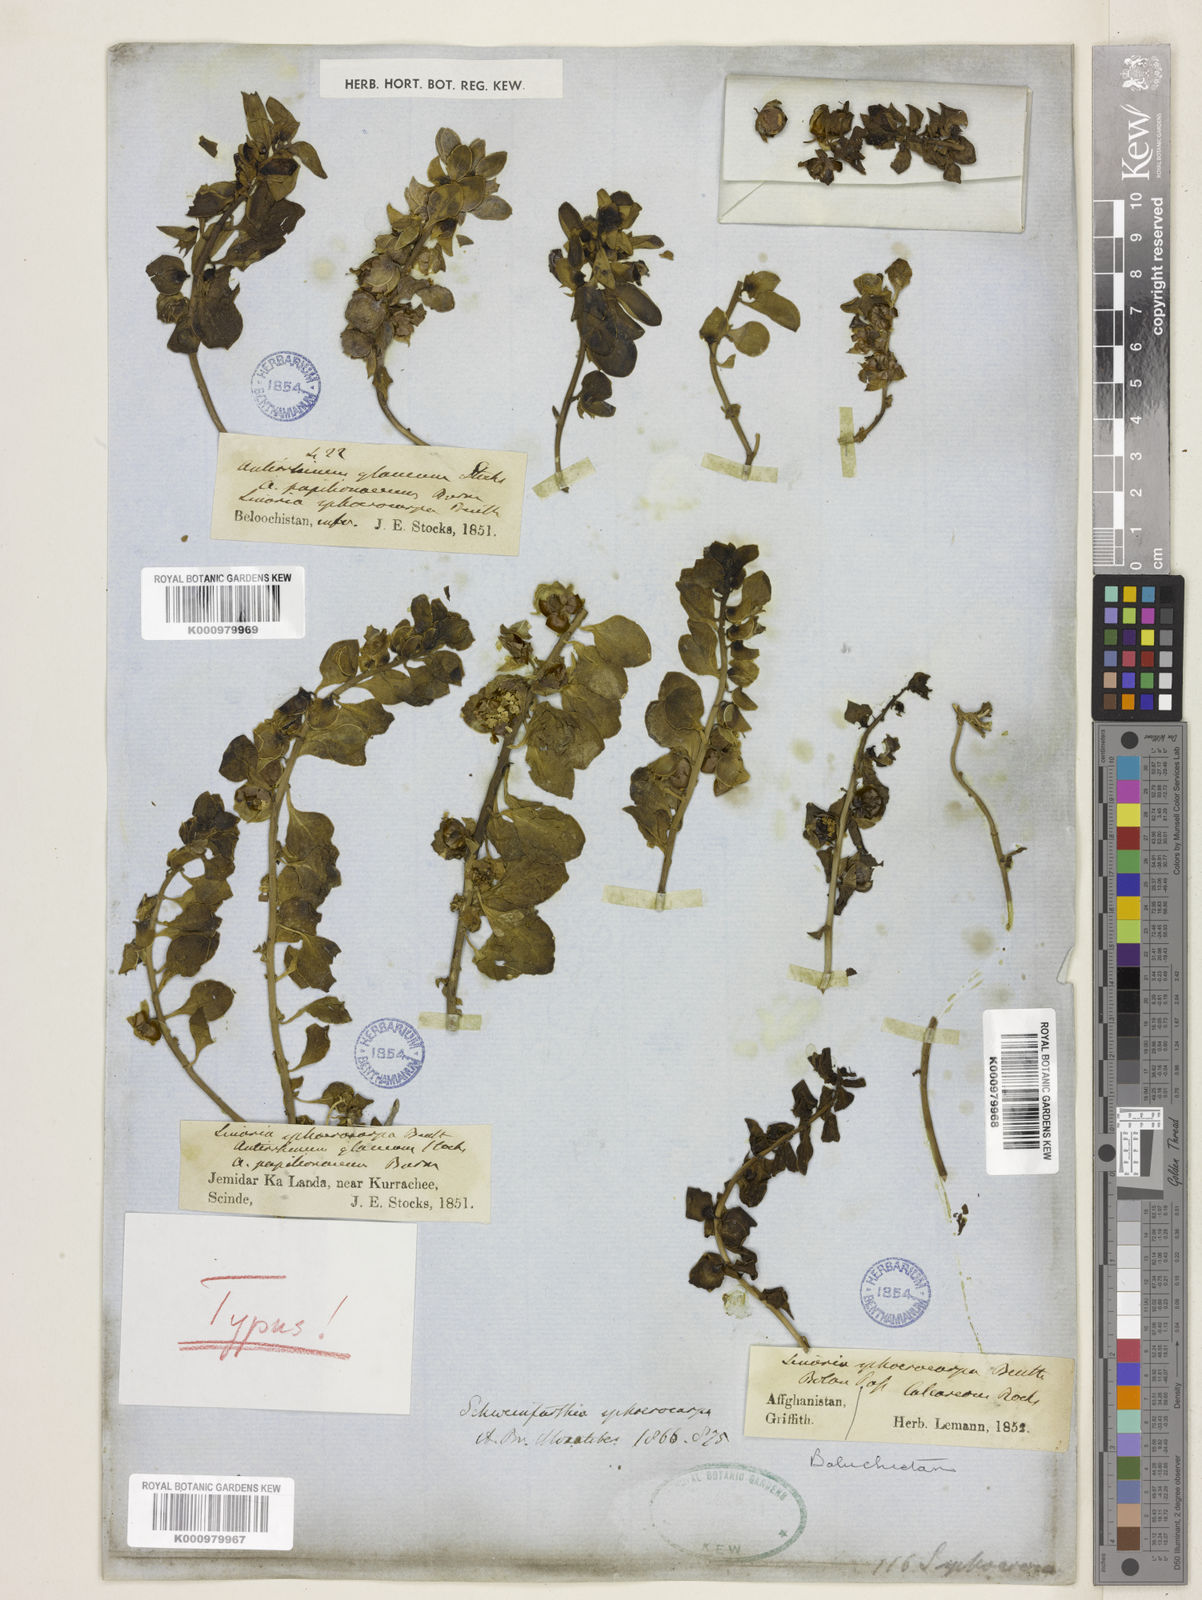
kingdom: Plantae
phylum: Tracheophyta
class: Magnoliopsida
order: Lamiales
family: Plantaginaceae
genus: Schweinfurthia
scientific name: Schweinfurthia papilionacea
